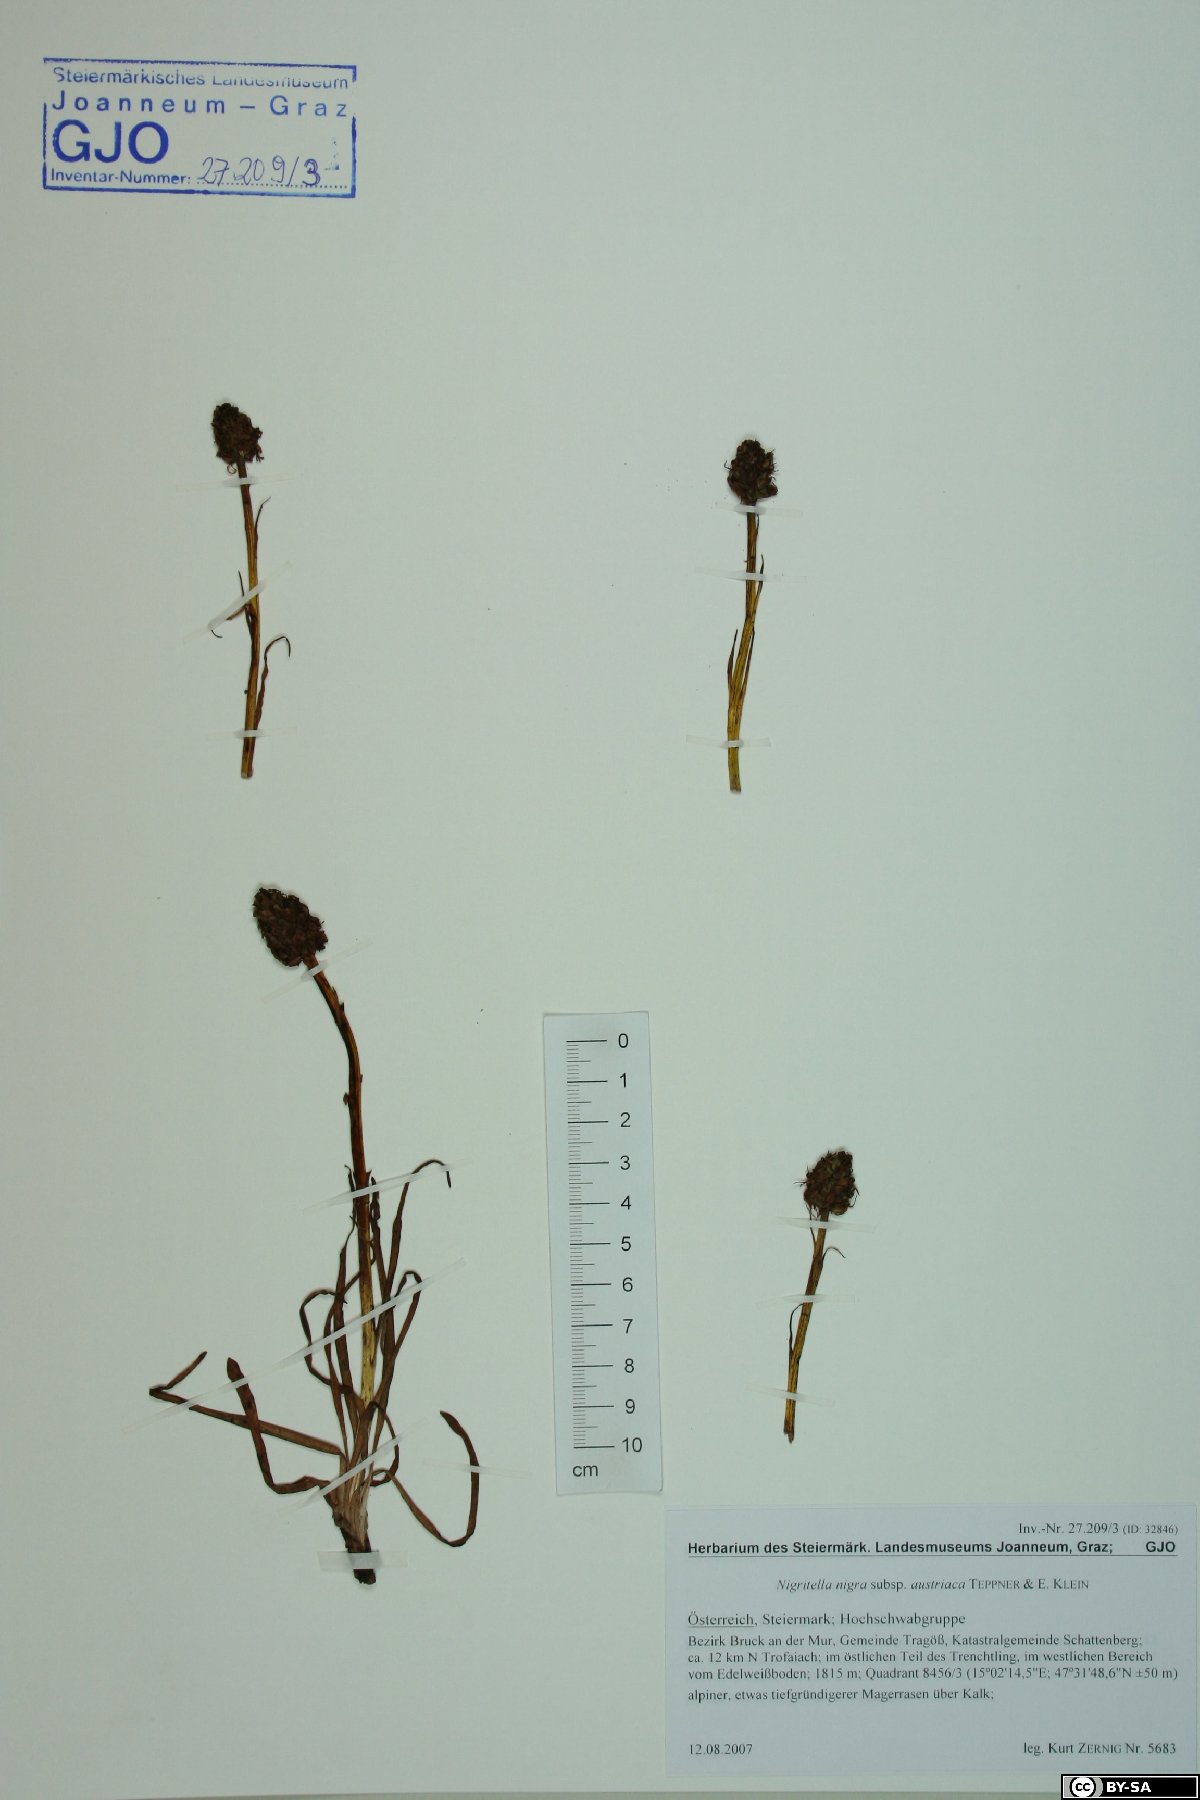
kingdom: Plantae
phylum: Tracheophyta
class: Liliopsida
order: Asparagales
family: Orchidaceae
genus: Gymnadenia
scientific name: Gymnadenia austriaca
